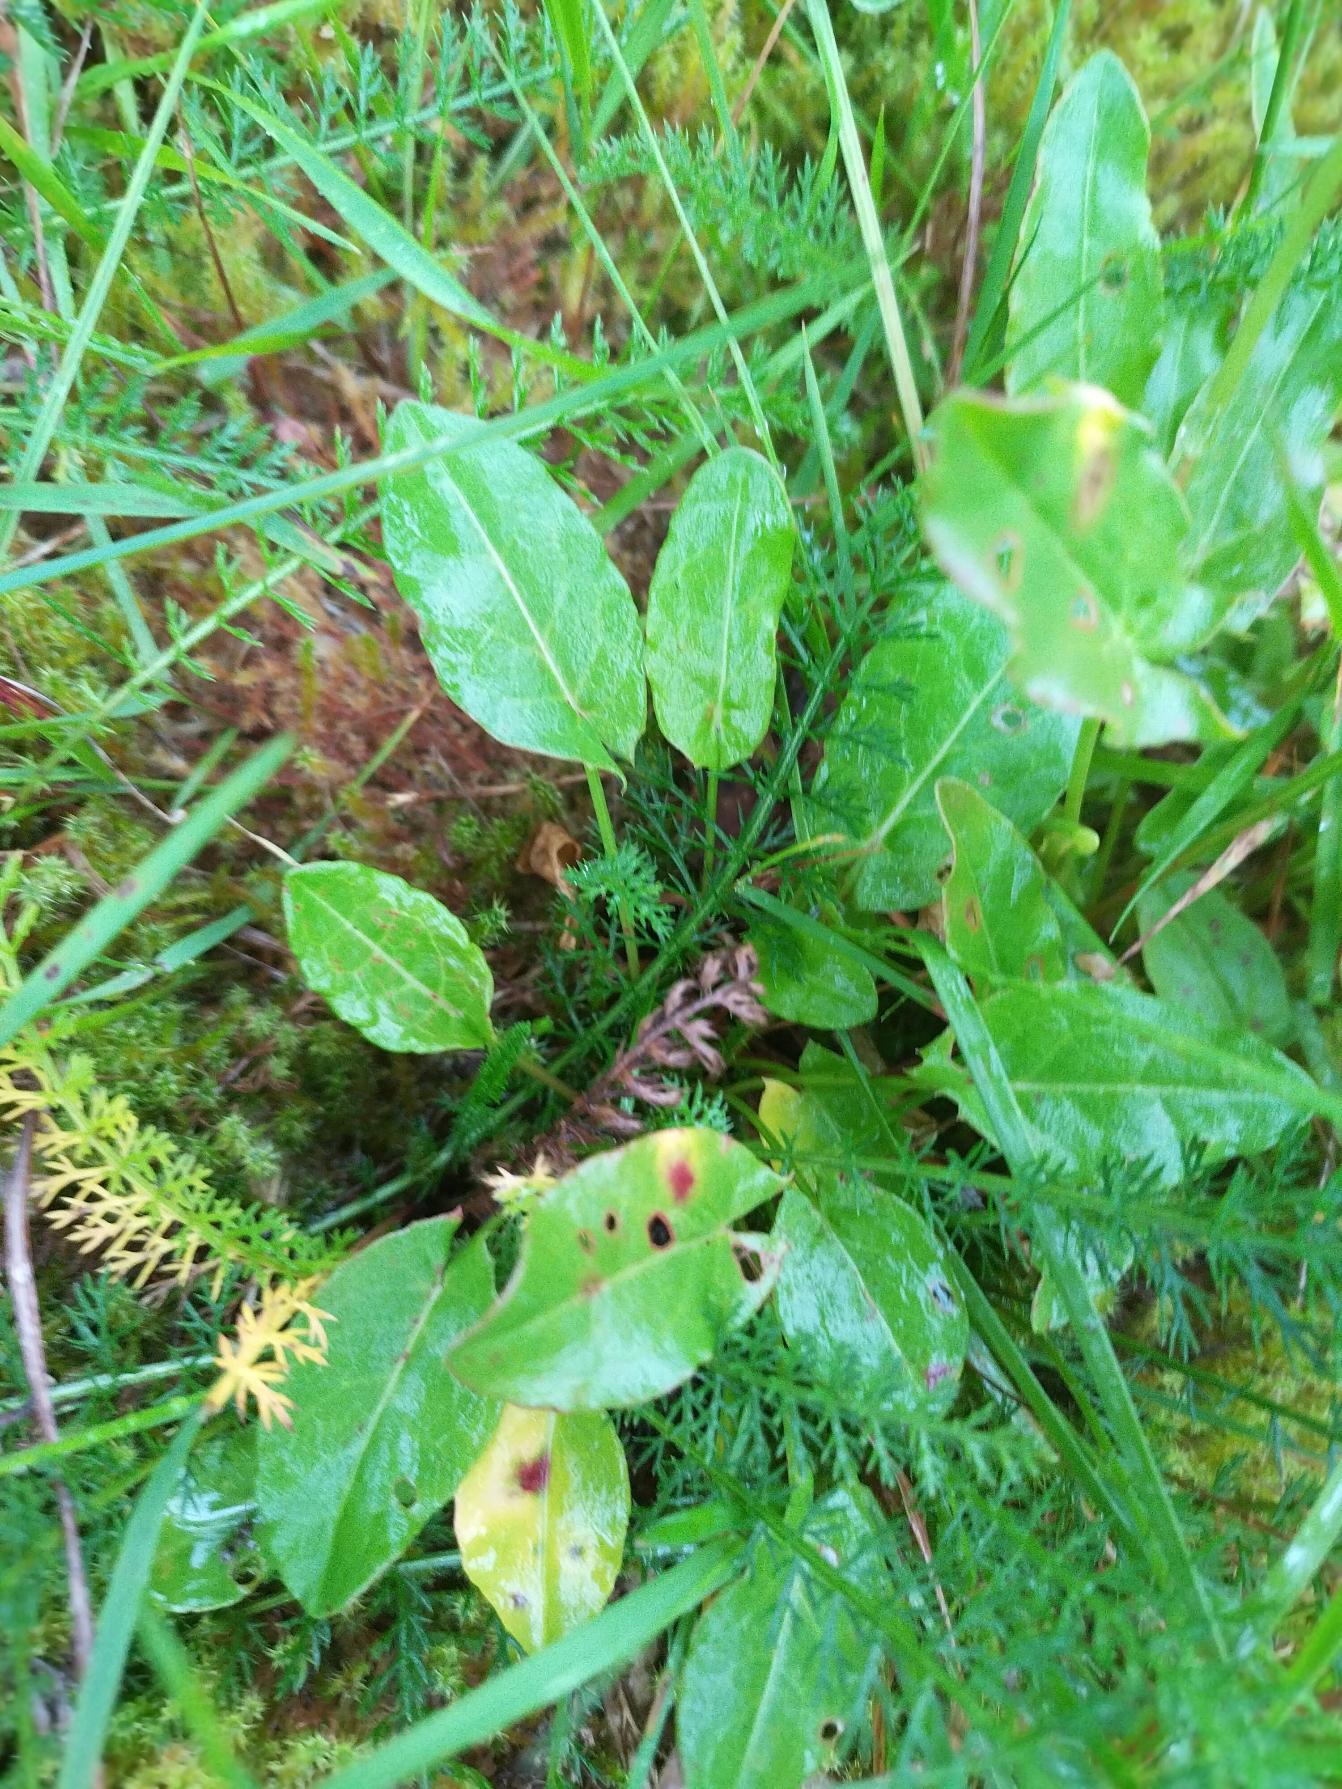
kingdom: Plantae
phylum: Tracheophyta
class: Magnoliopsida
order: Caryophyllales
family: Polygonaceae
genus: Rumex
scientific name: Rumex acetosa
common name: Almindelig syre
